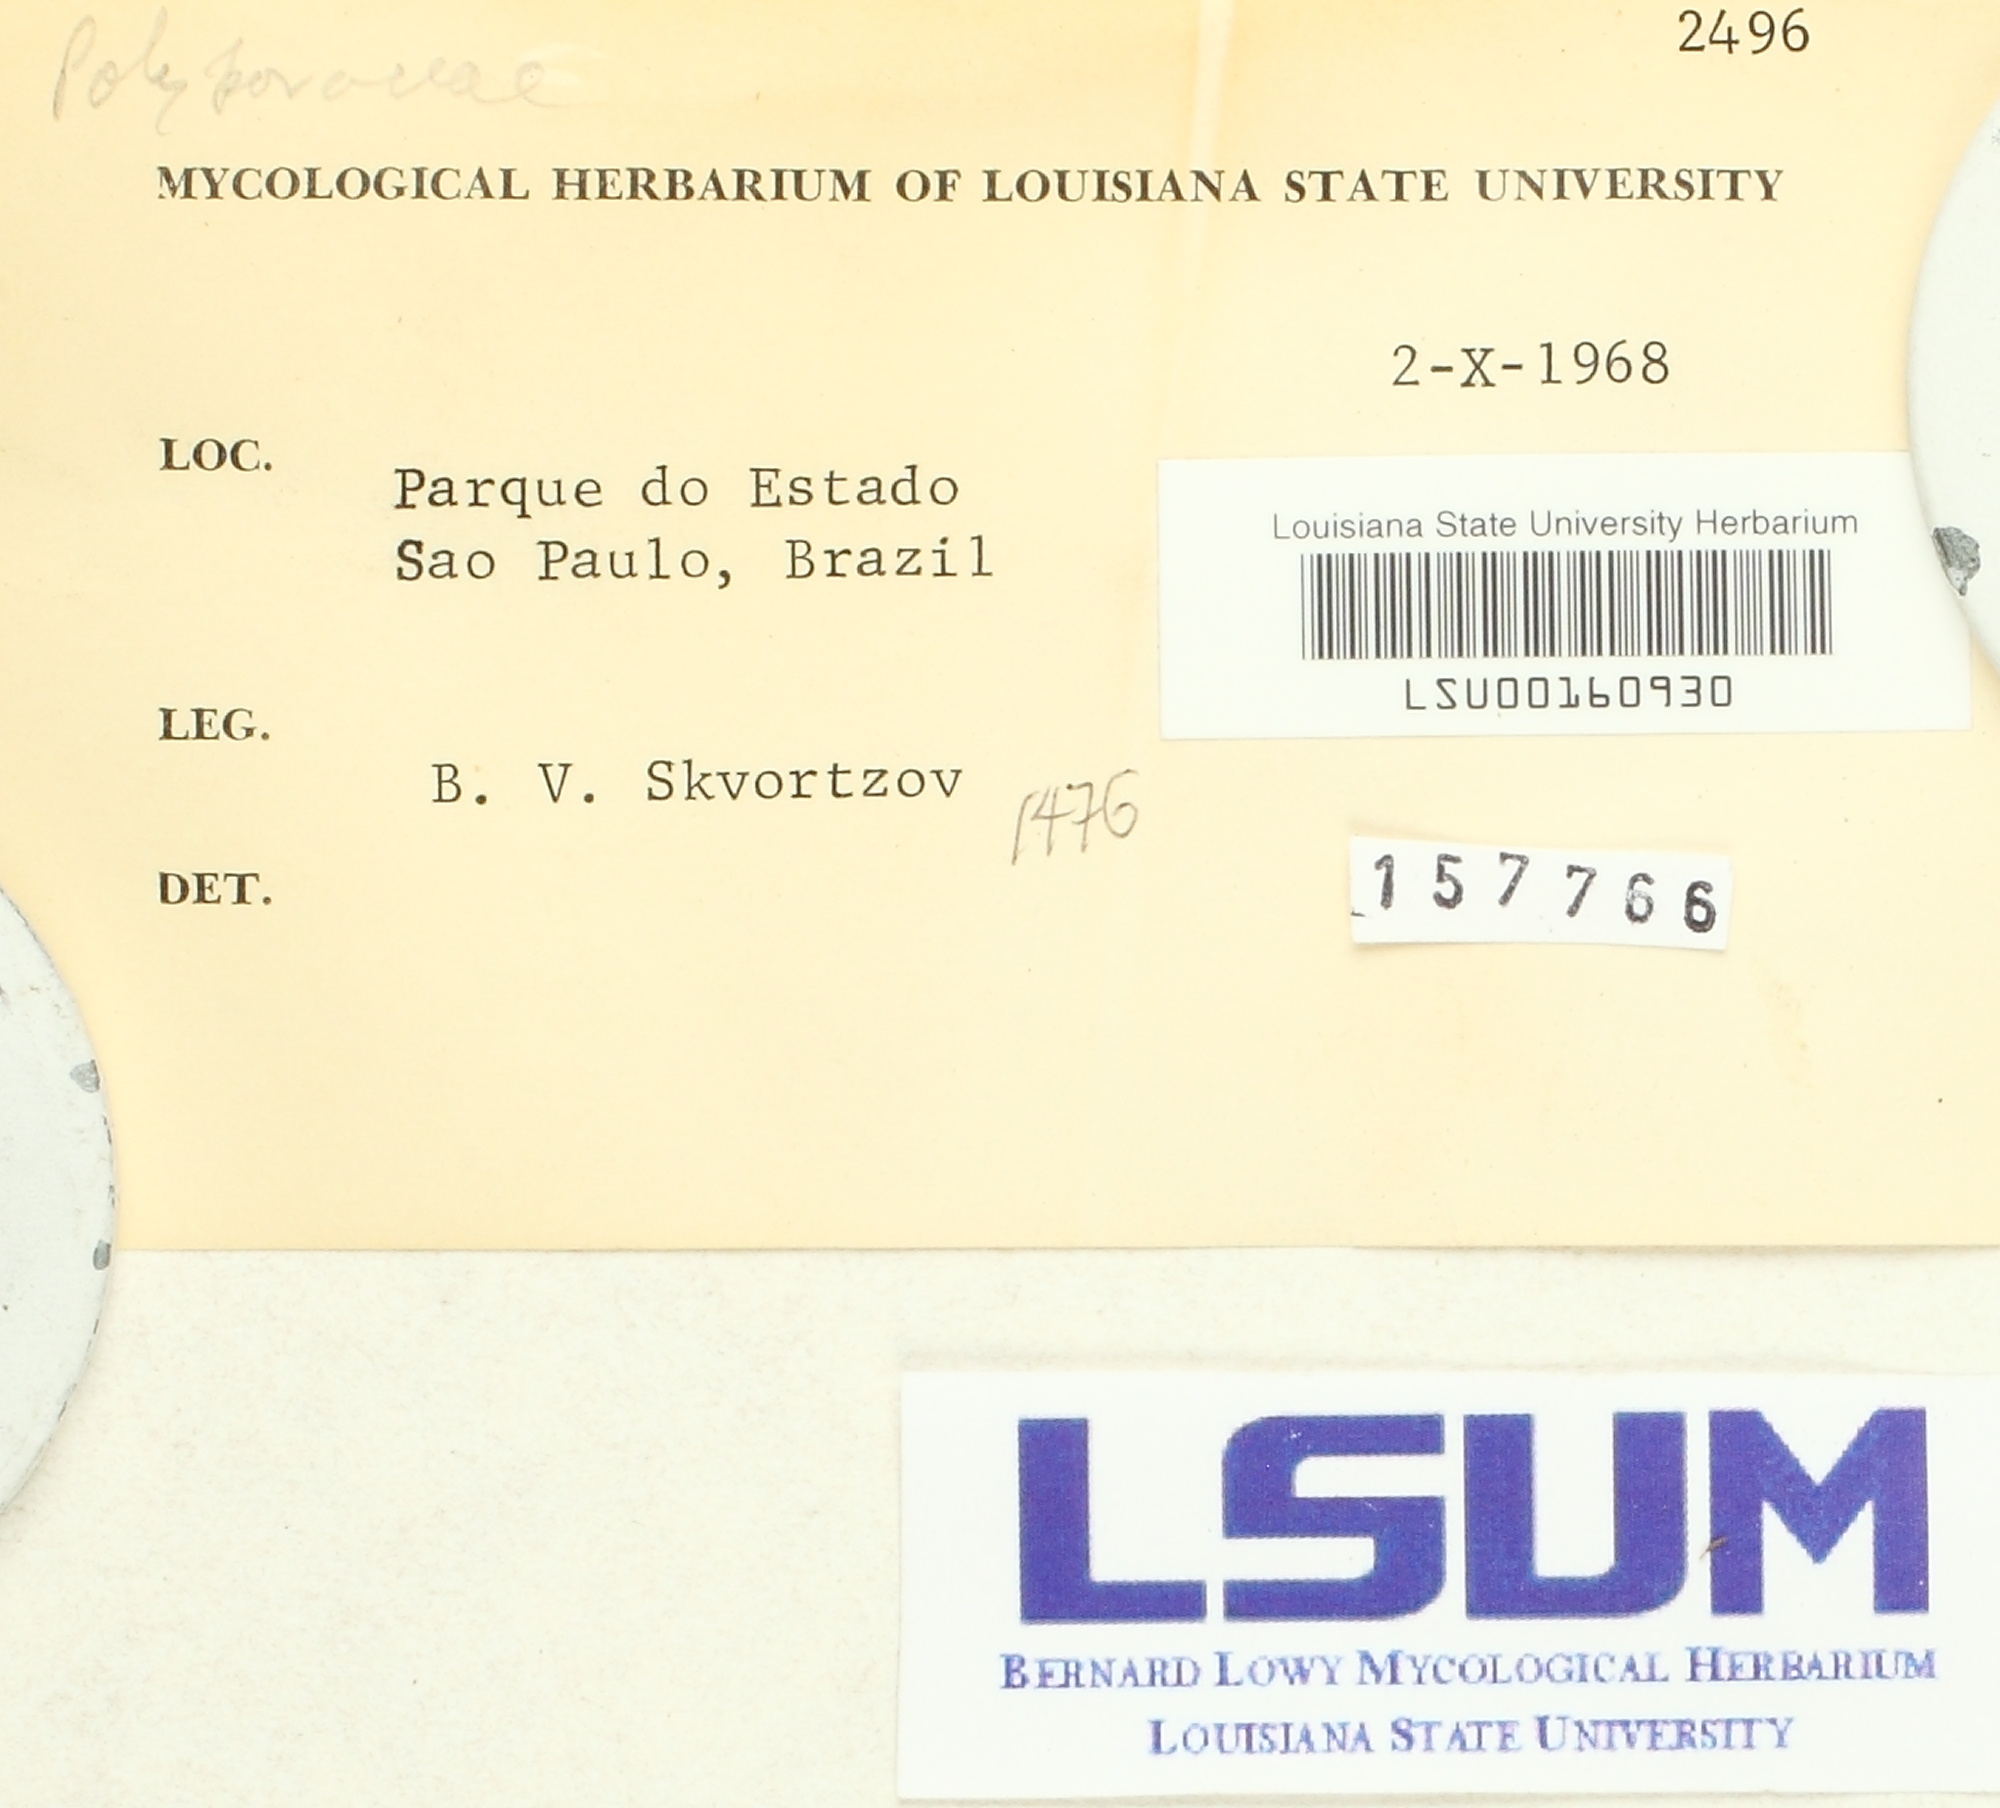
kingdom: Fungi
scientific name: Fungi
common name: Fungi
